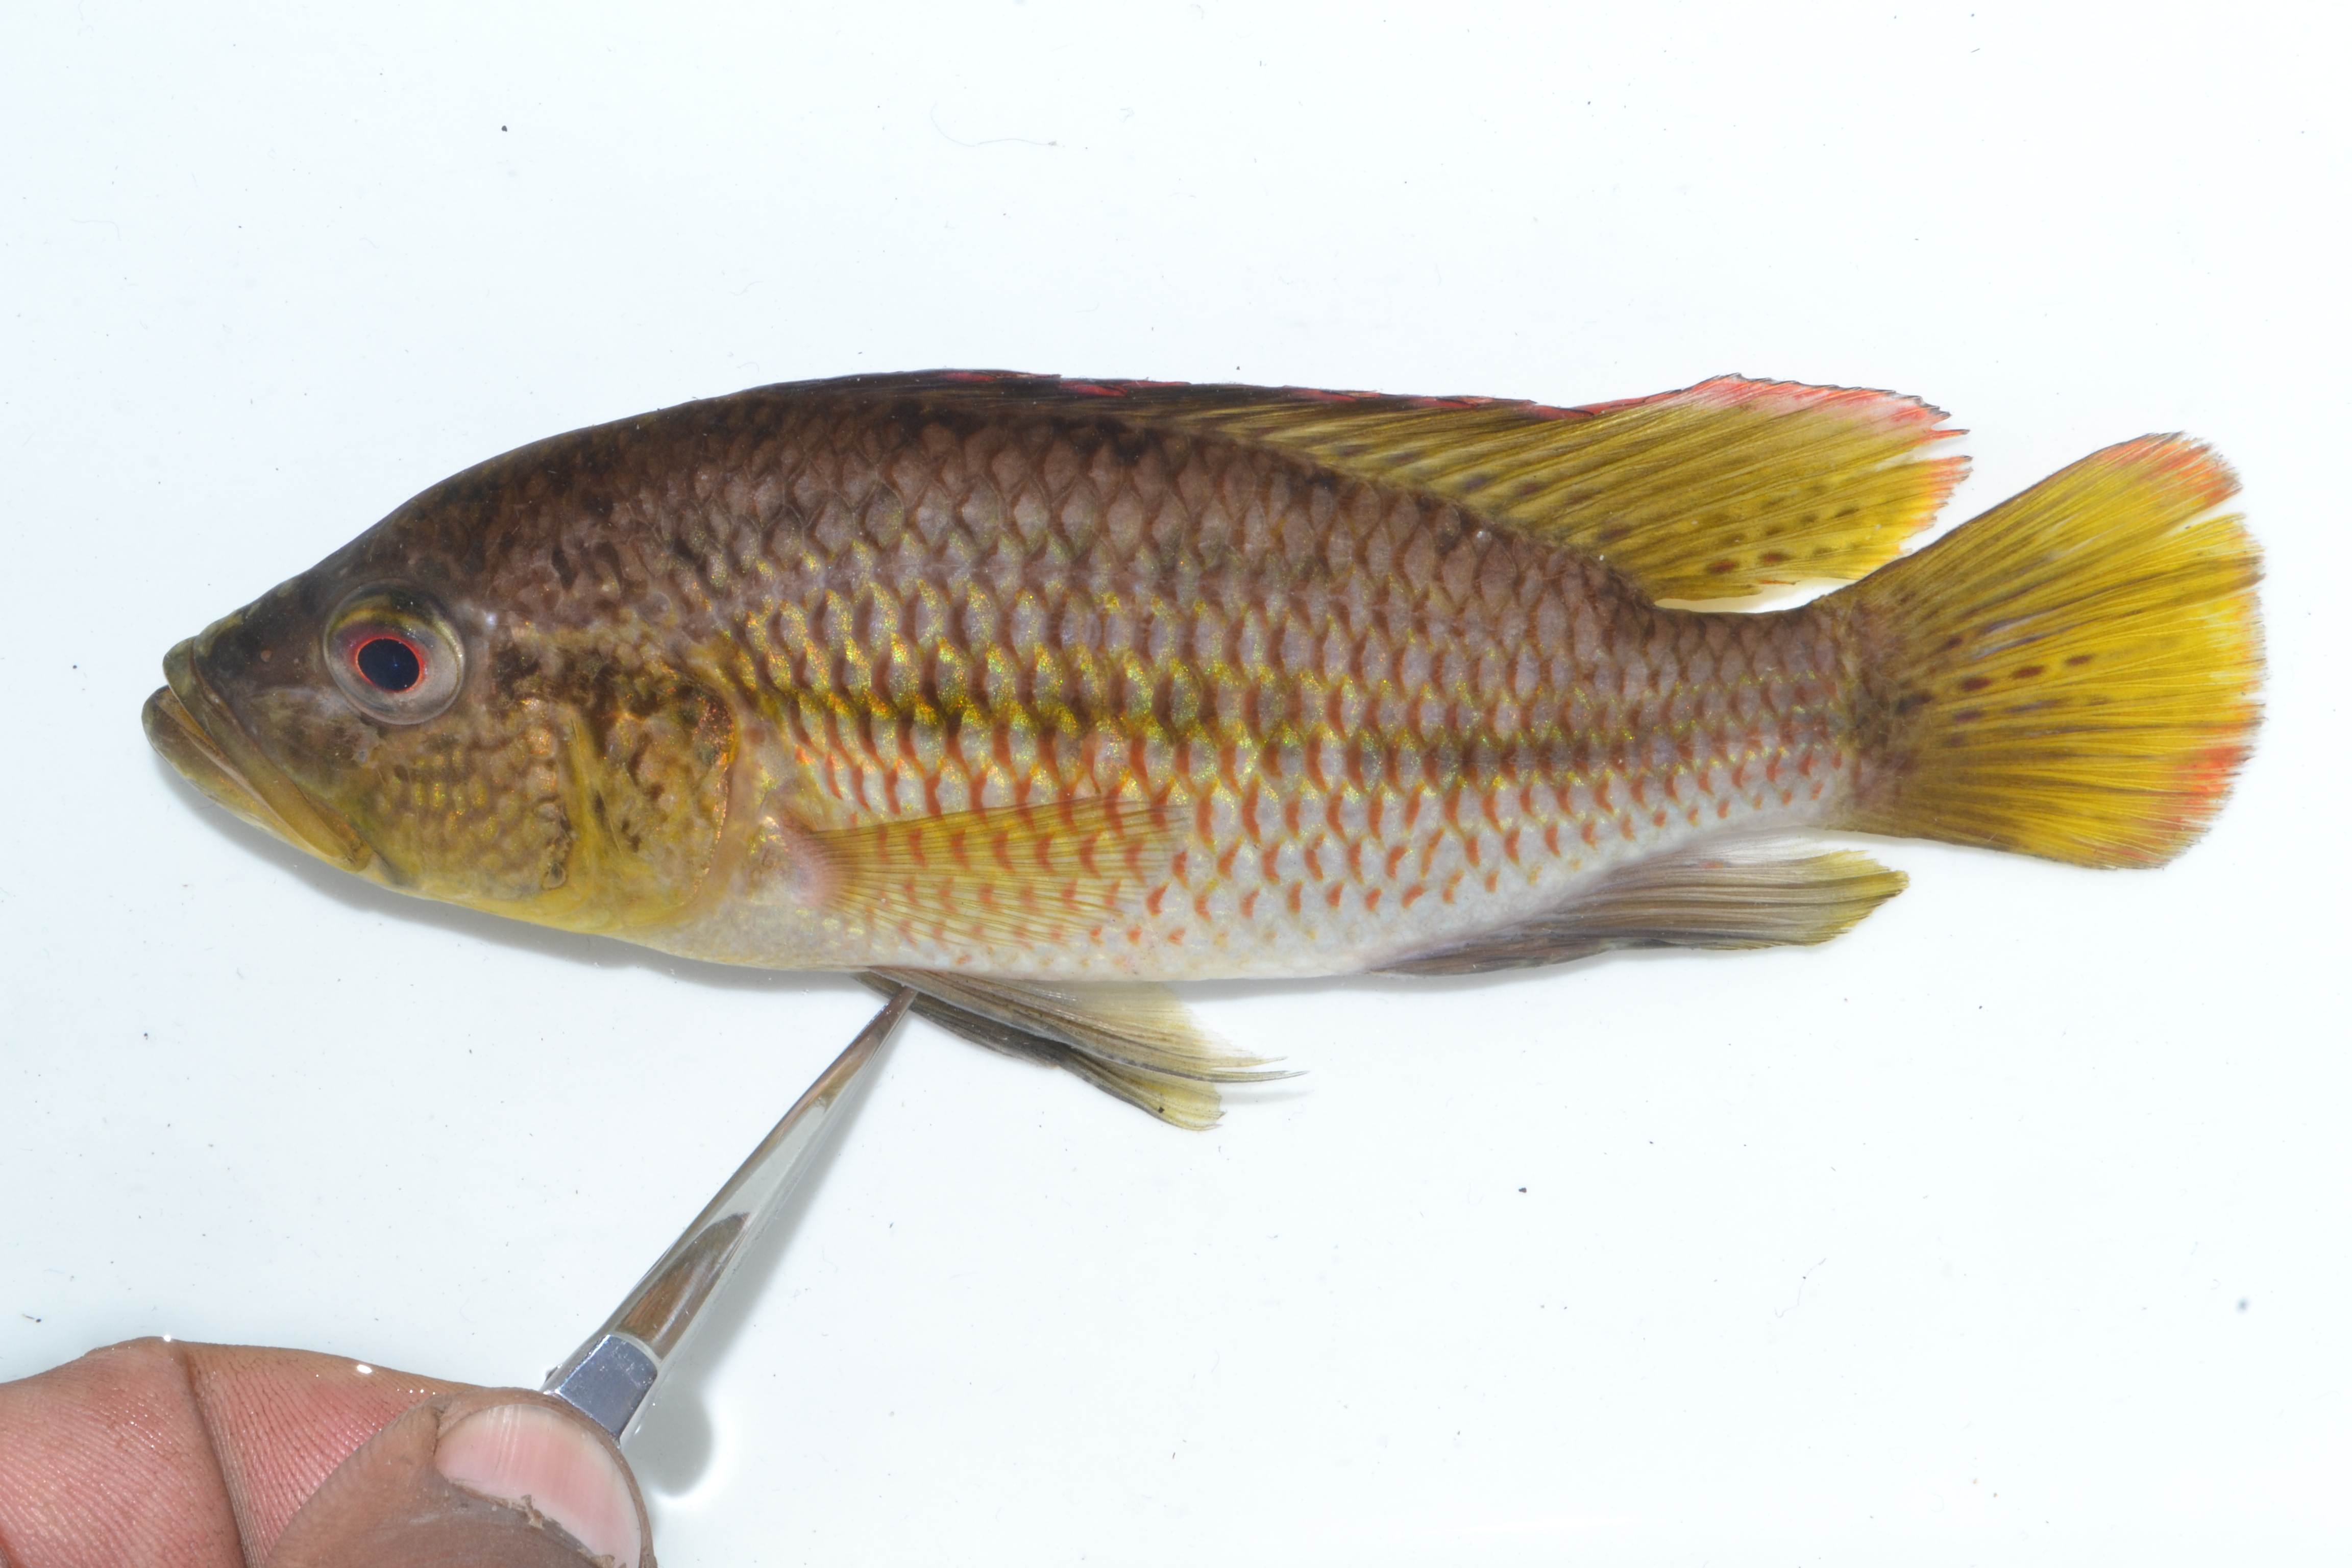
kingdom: Animalia
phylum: Chordata
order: Perciformes
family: Cichlidae
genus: Sargochromis
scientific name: Sargochromis
